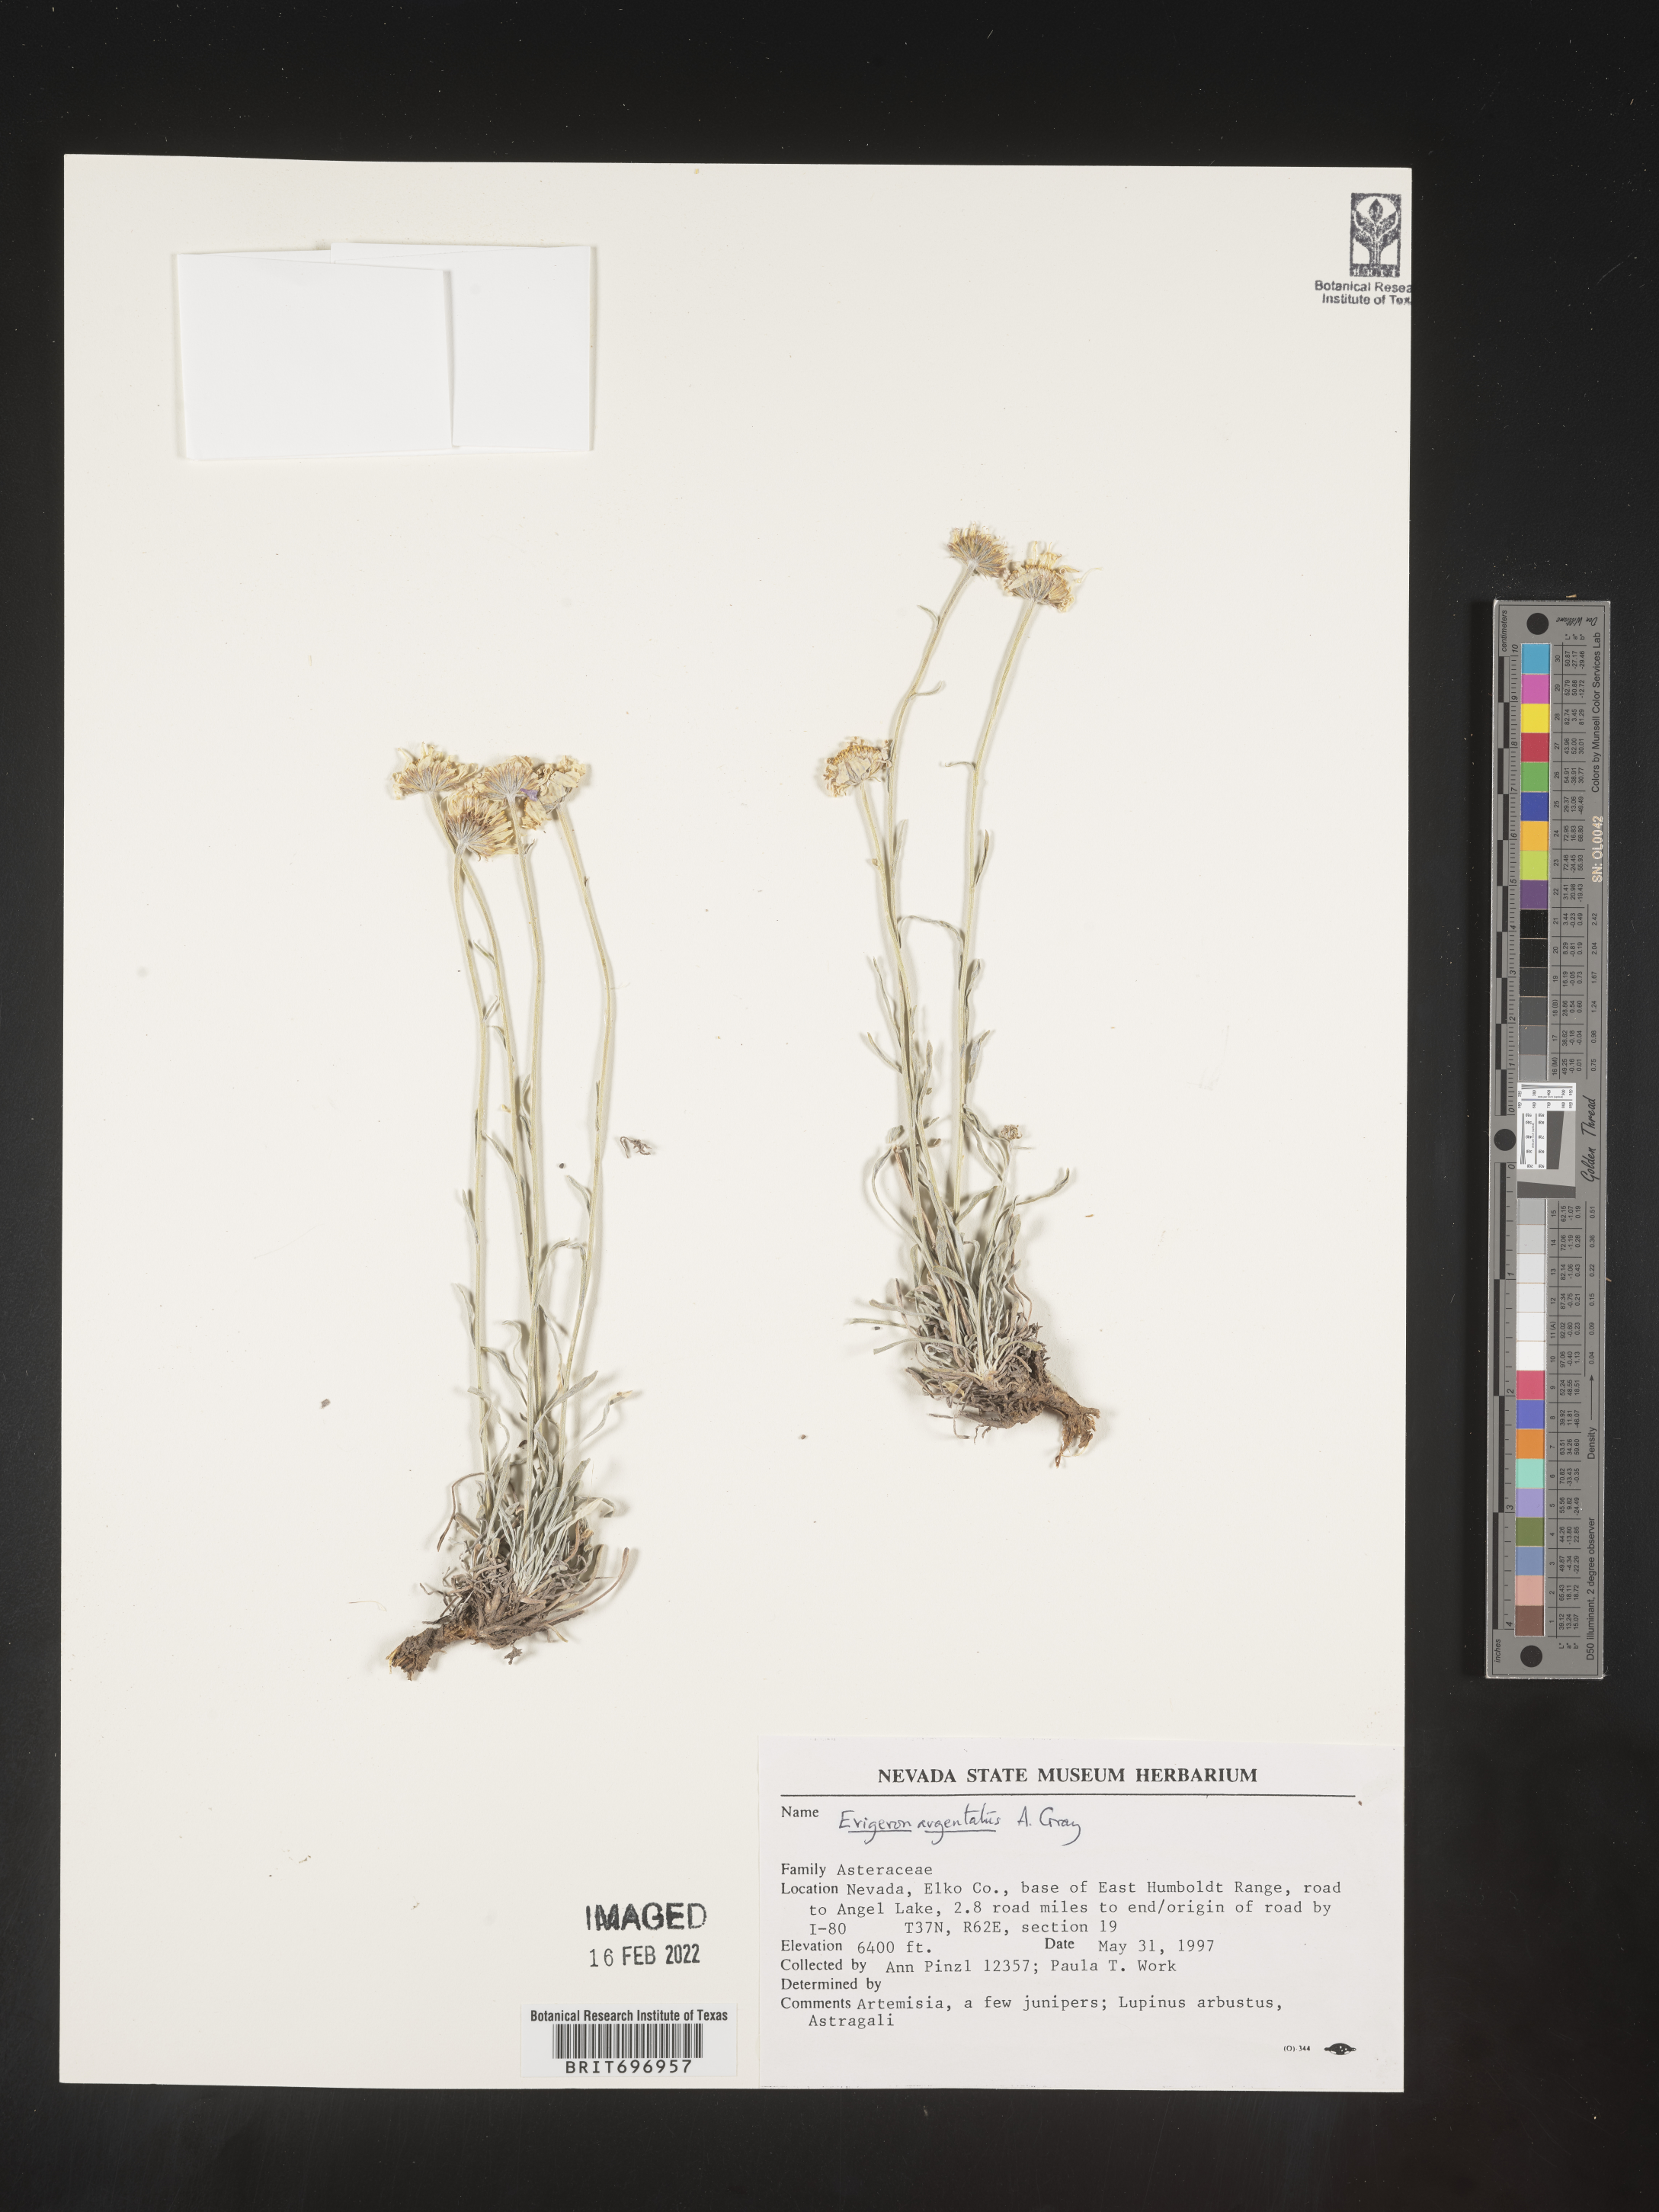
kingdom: Plantae
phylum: Tracheophyta
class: Magnoliopsida
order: Asterales
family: Asteraceae
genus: Erigeron
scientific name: Erigeron argentatus
